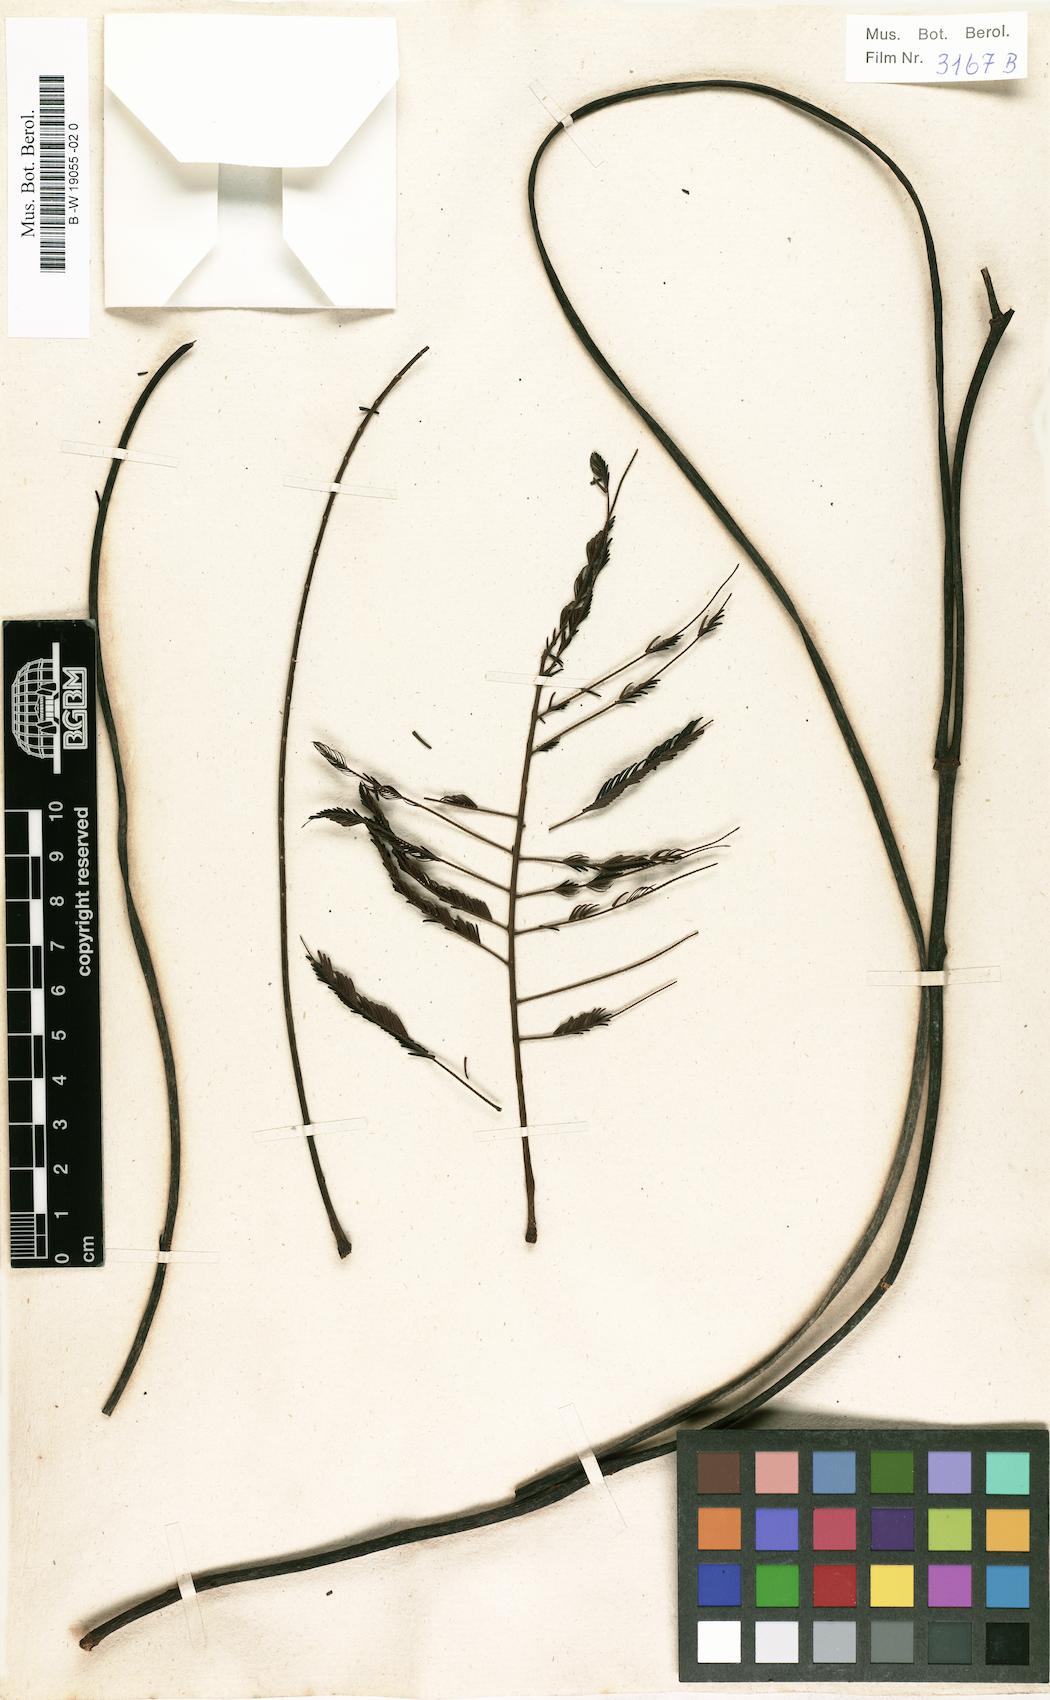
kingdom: Plantae
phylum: Tracheophyta
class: Magnoliopsida
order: Fabales
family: Fabaceae
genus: Parkia
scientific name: Parkia pendula
